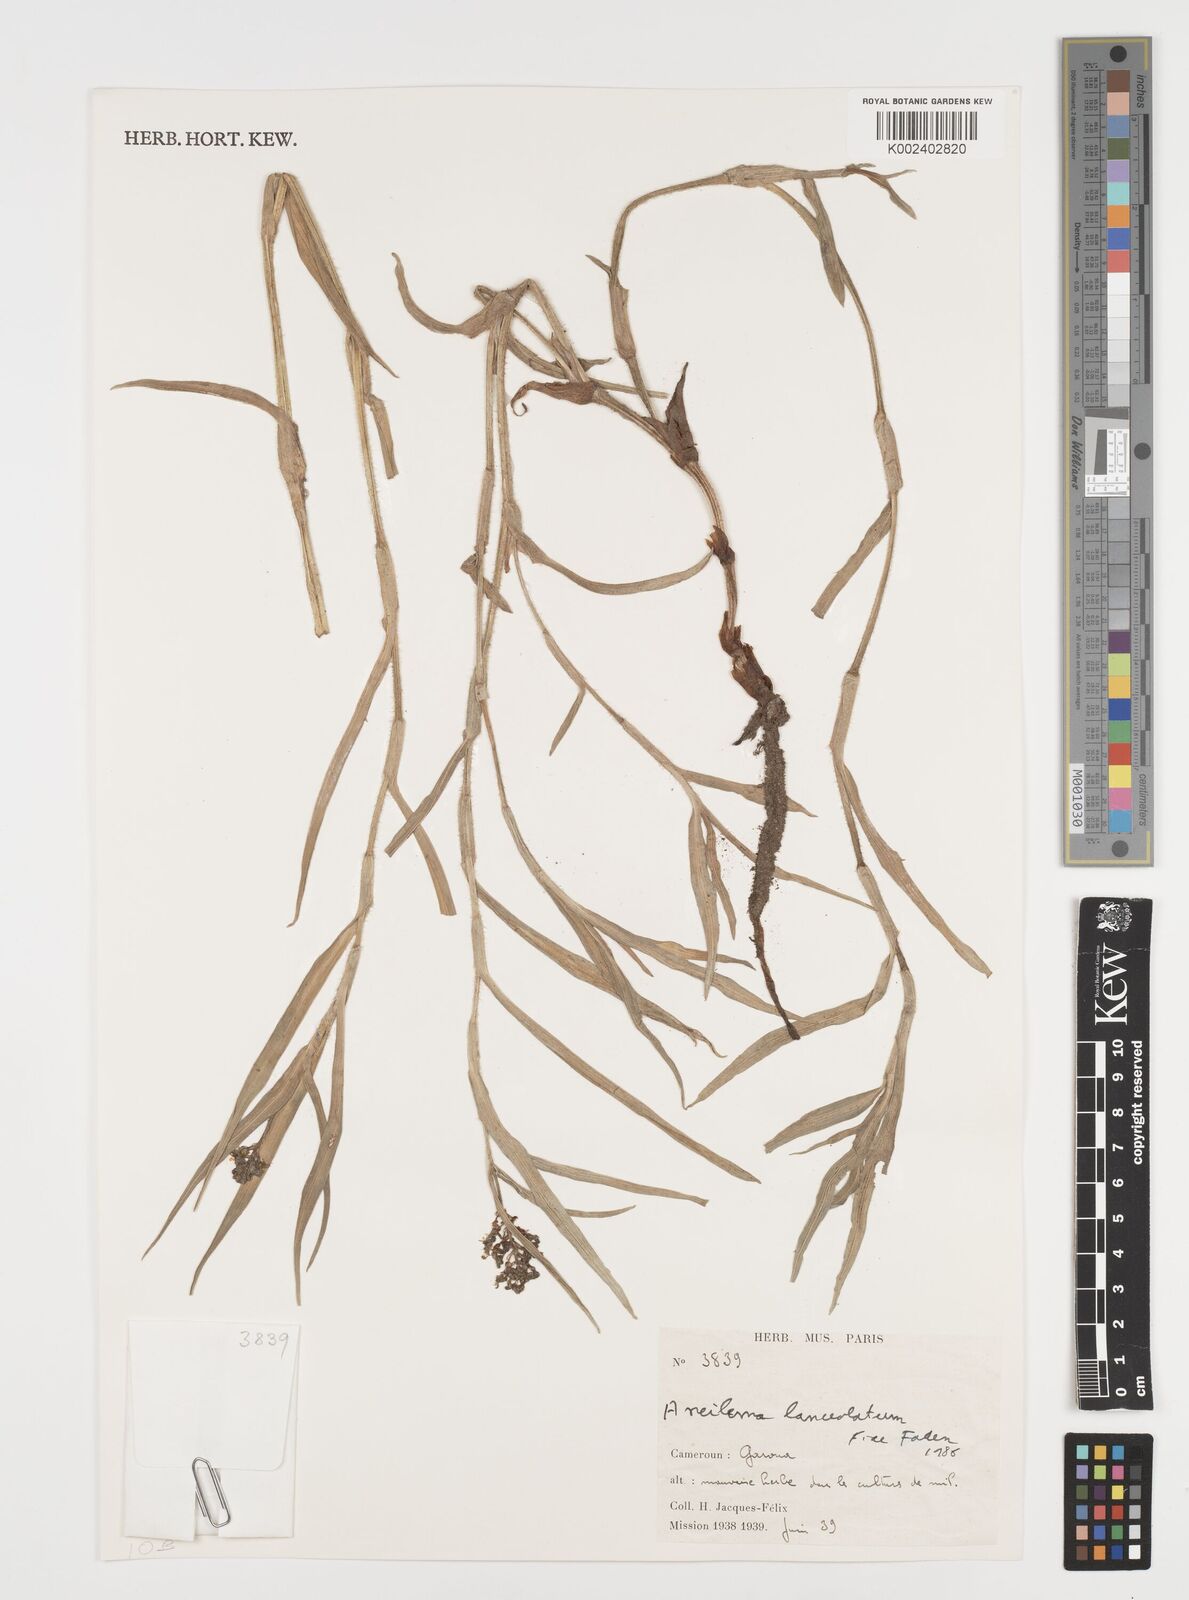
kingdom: Plantae
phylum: Tracheophyta
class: Liliopsida
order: Commelinales
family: Commelinaceae
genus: Aneilema
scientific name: Aneilema lanceolatum
